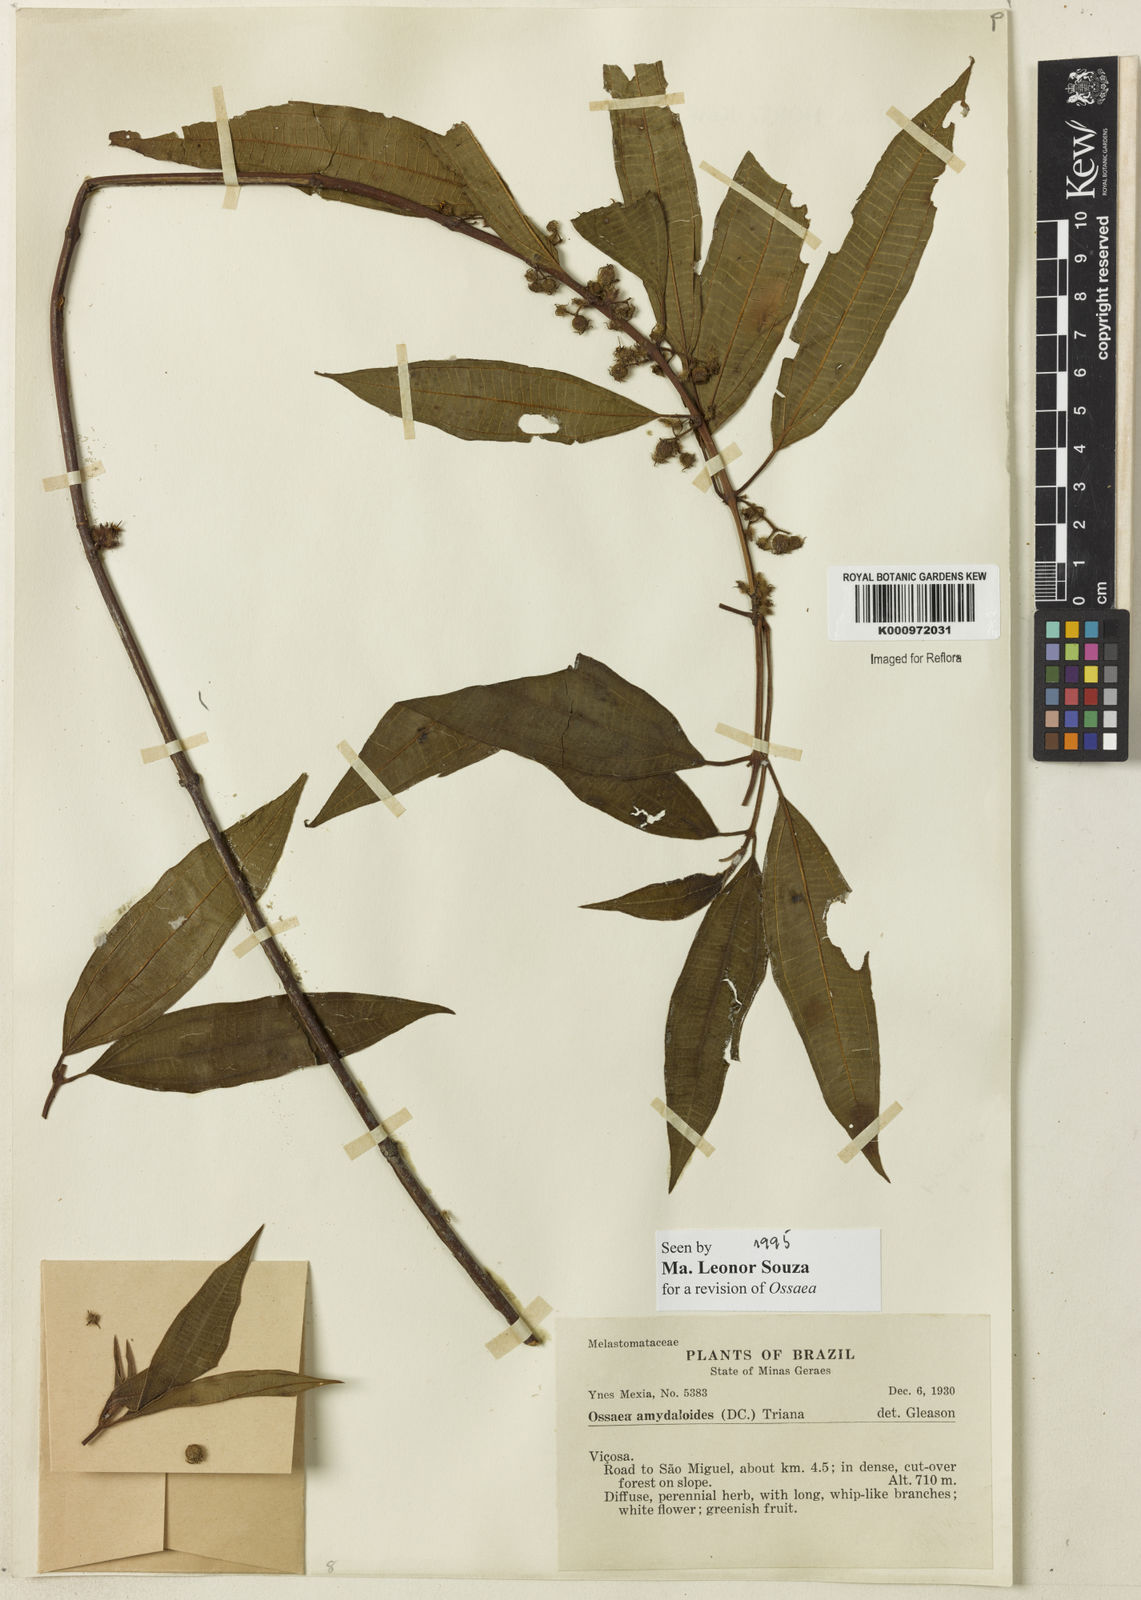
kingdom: Plantae
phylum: Tracheophyta
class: Magnoliopsida
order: Myrtales
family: Melastomataceae
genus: Miconia
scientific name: Miconia amygdaloides
